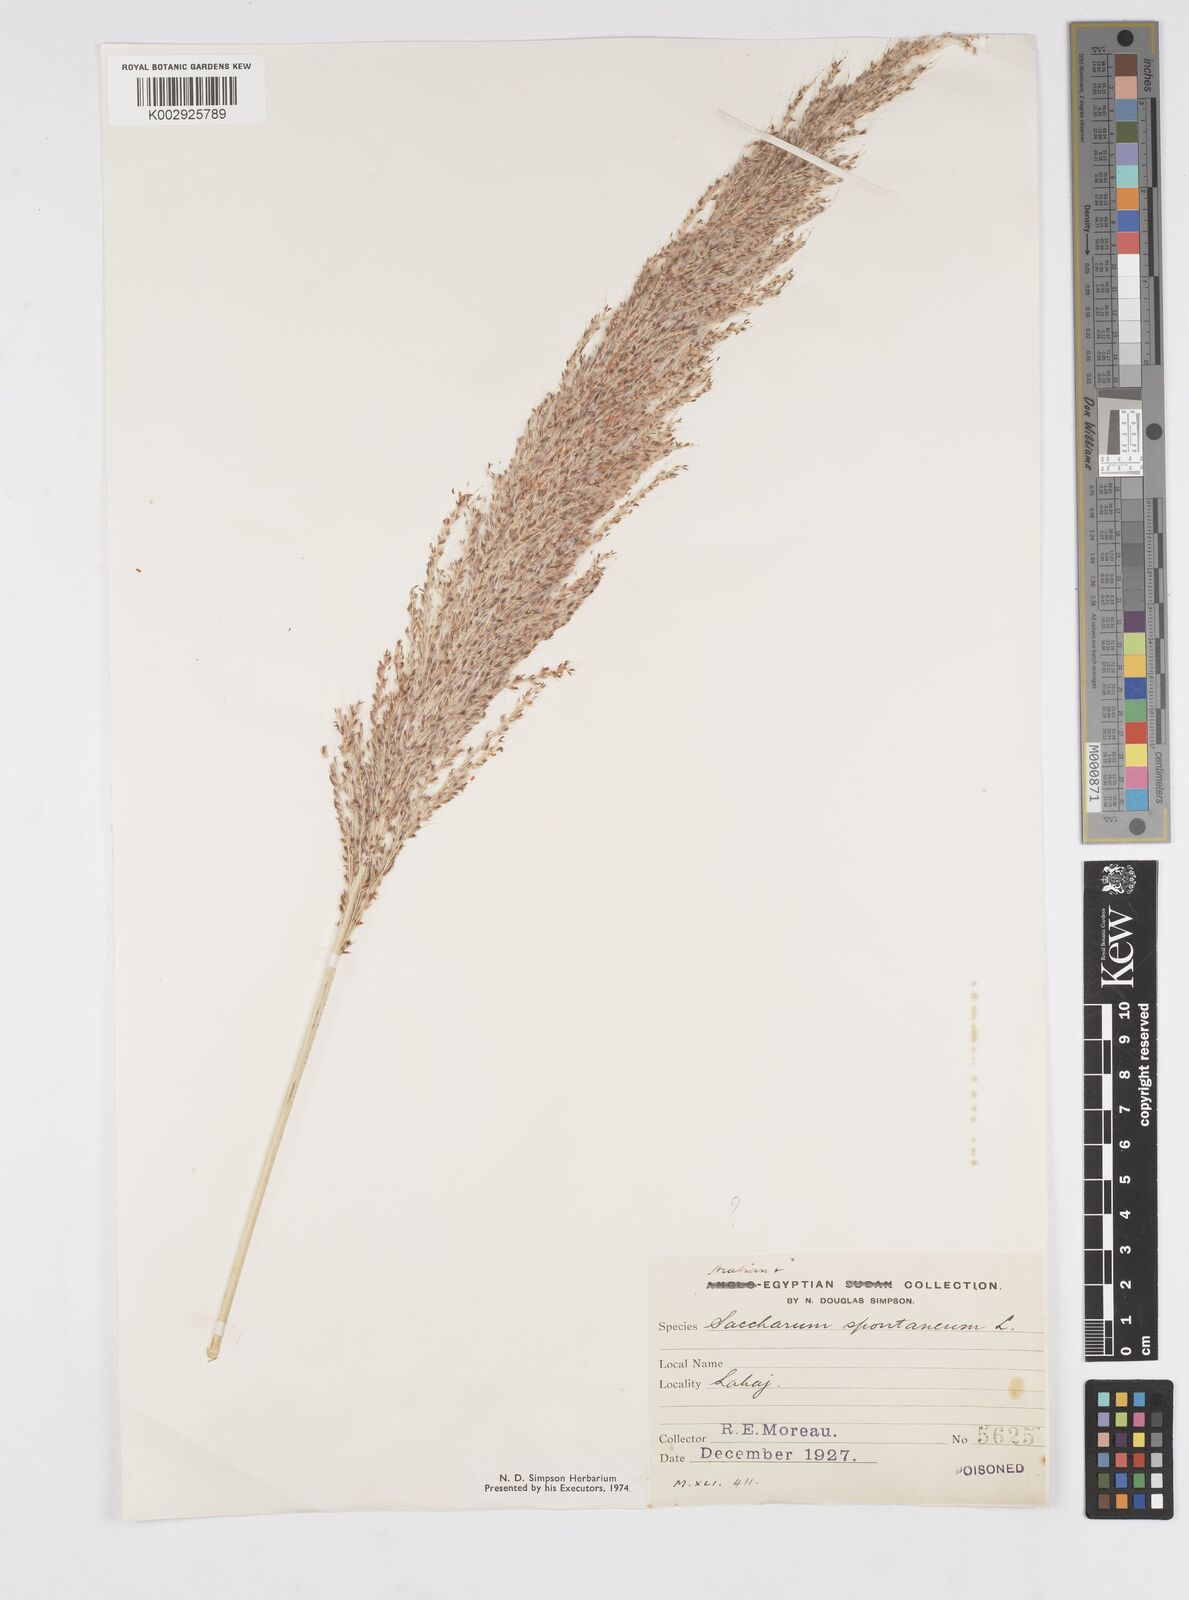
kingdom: Plantae
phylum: Tracheophyta
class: Liliopsida
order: Poales
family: Poaceae
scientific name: Poaceae
